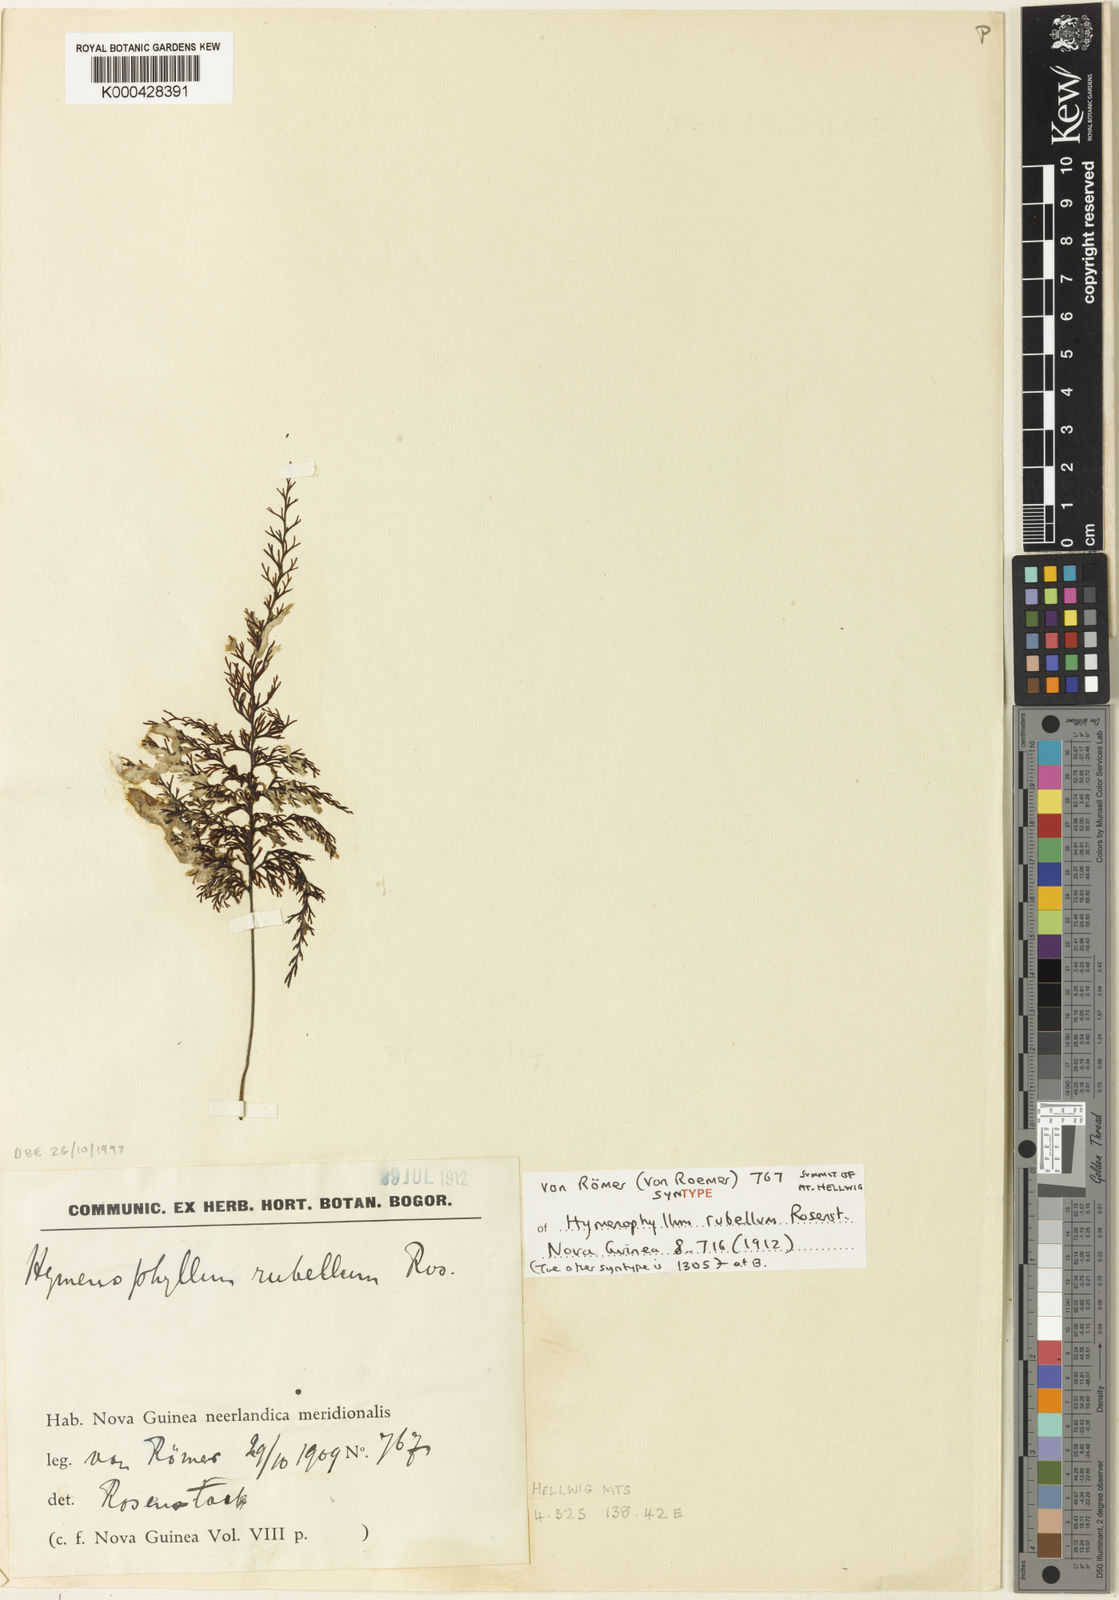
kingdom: Plantae
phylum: Tracheophyta
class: Polypodiopsida
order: Hymenophyllales
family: Hymenophyllaceae
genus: Hymenophyllum
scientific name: Hymenophyllum rubellum
